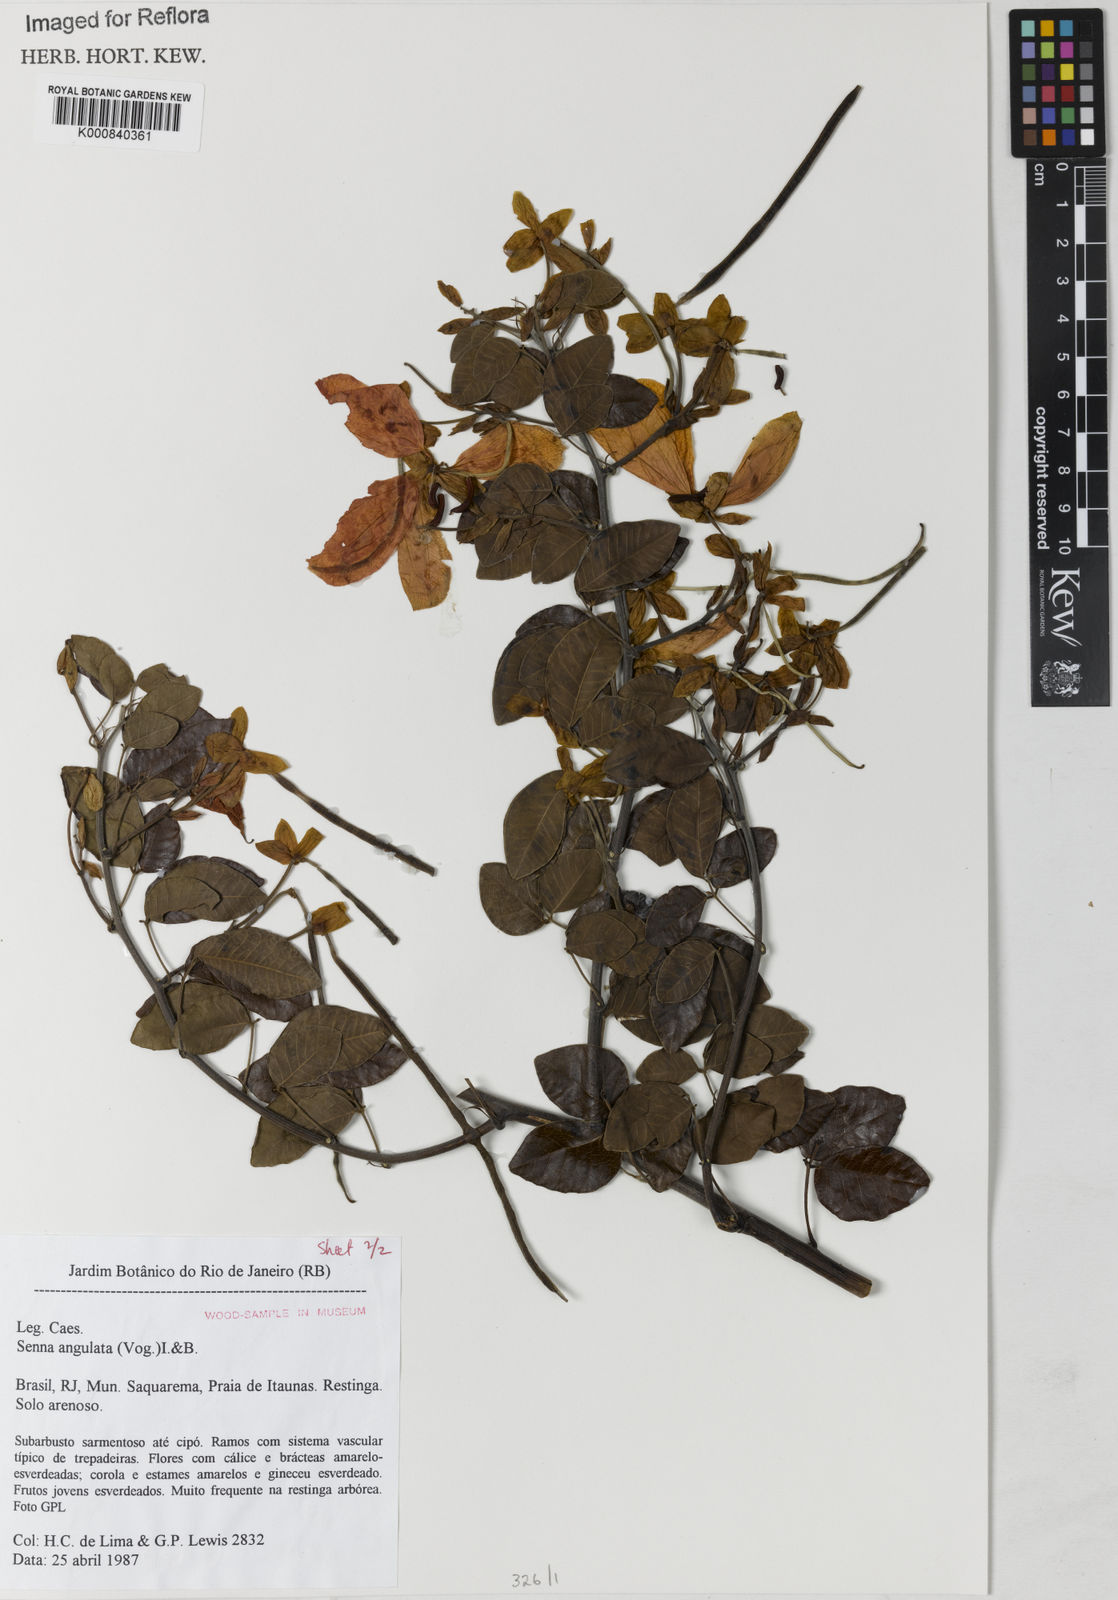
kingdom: Plantae
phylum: Tracheophyta
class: Magnoliopsida
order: Fabales
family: Fabaceae
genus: Senna
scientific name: Senna angulata
